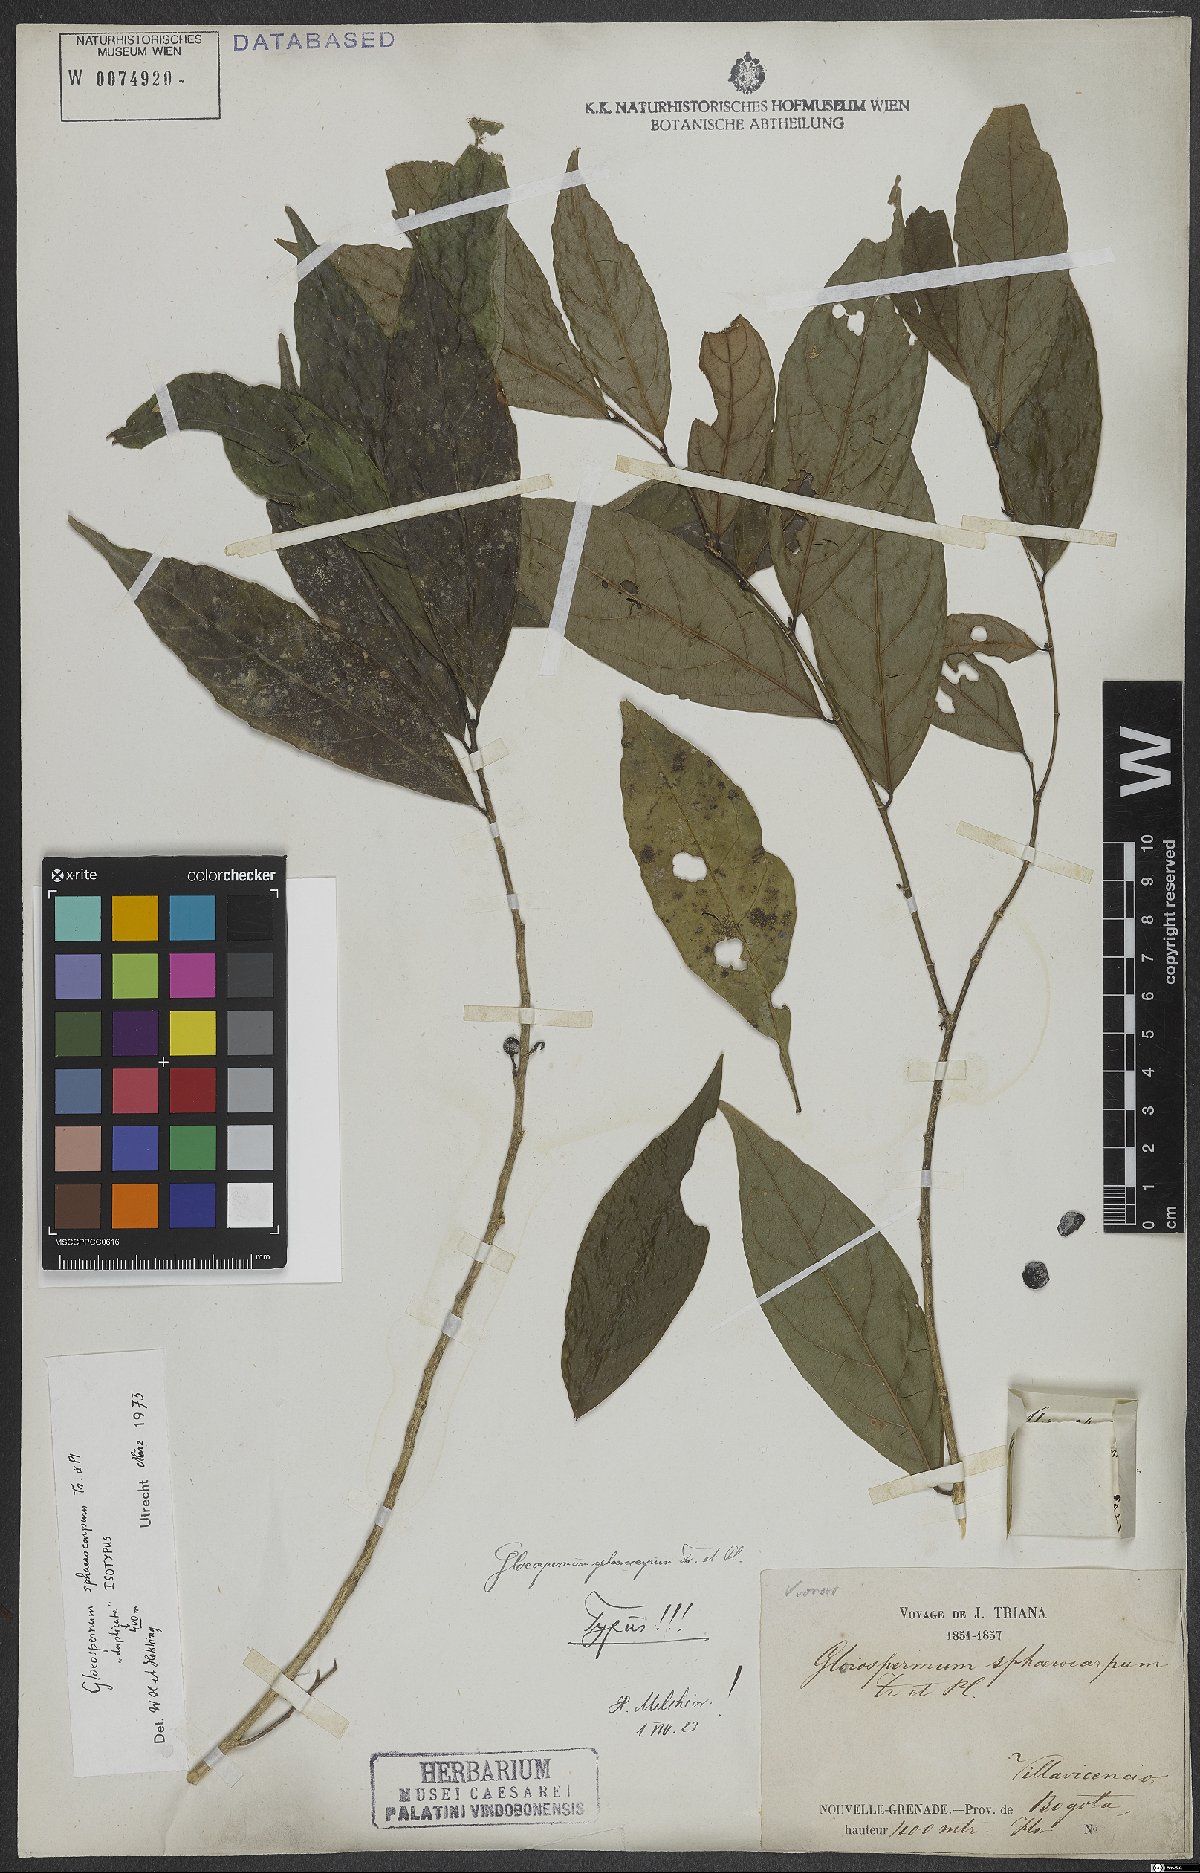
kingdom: Plantae
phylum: Tracheophyta
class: Magnoliopsida
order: Malpighiales
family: Violaceae
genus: Gloeospermum
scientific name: Gloeospermum sphaerocarpum
